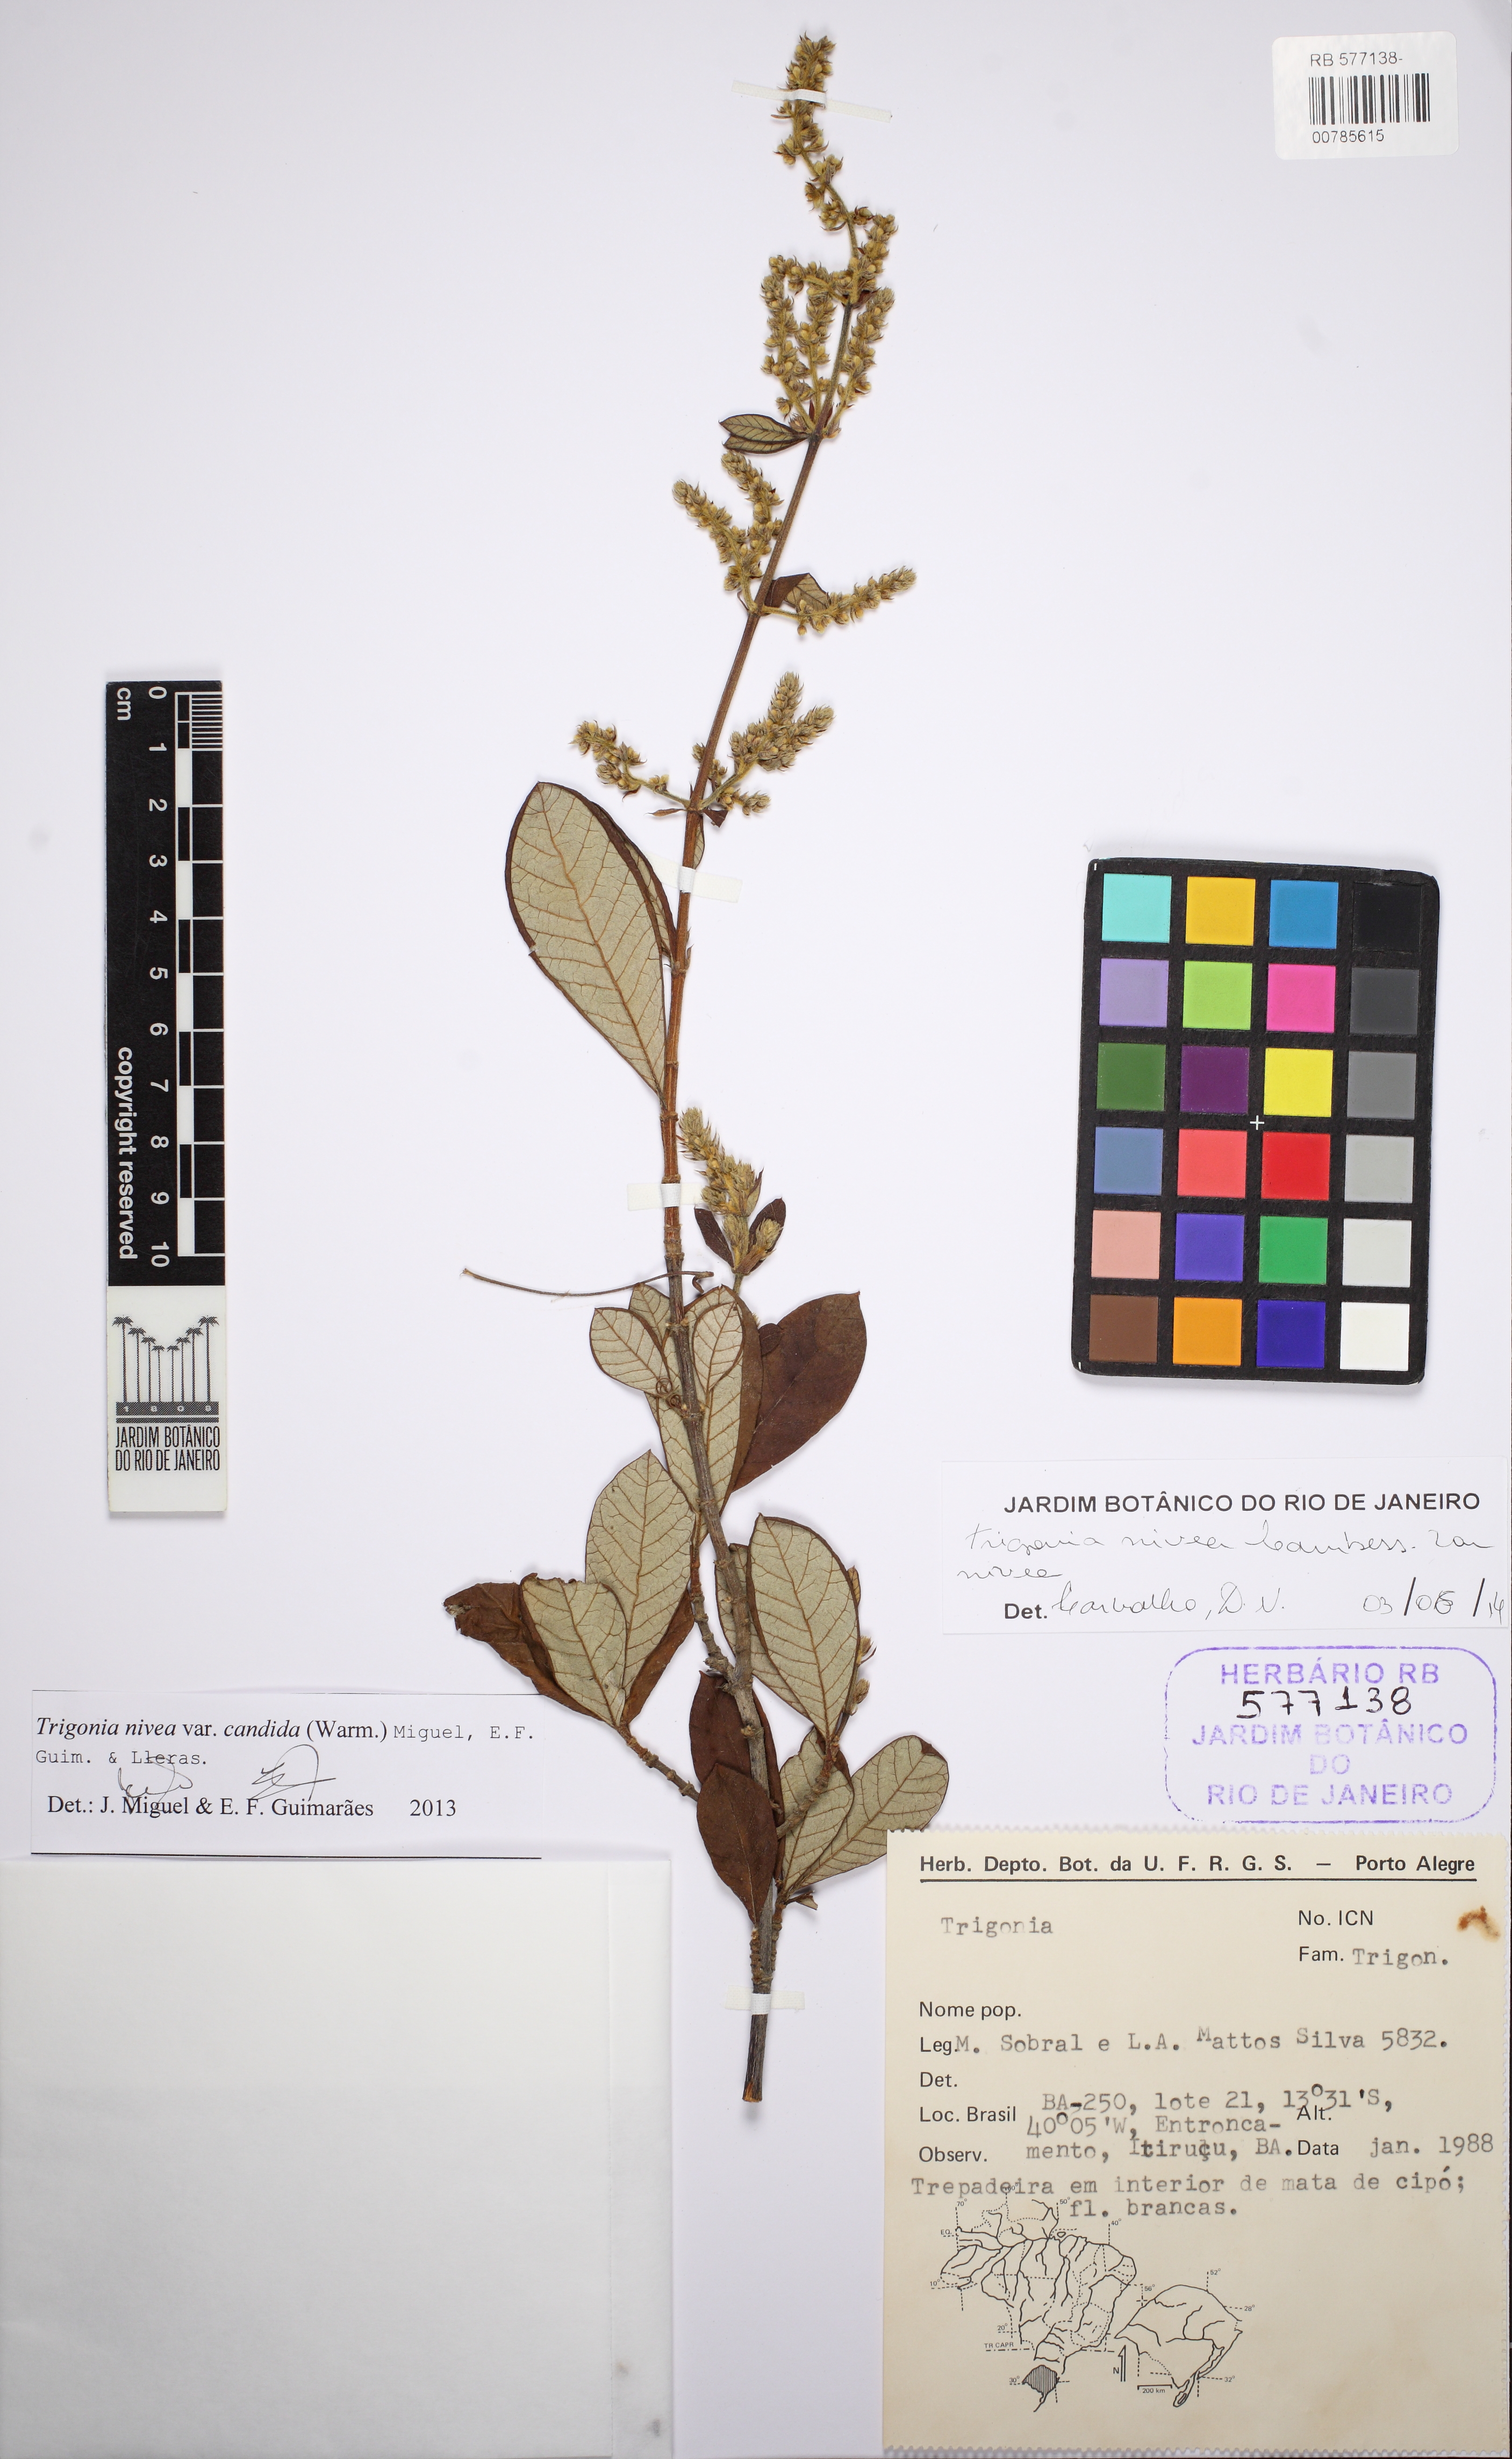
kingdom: Plantae
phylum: Tracheophyta
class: Magnoliopsida
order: Malpighiales
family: Trigoniaceae
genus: Trigonia
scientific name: Trigonia nivea
